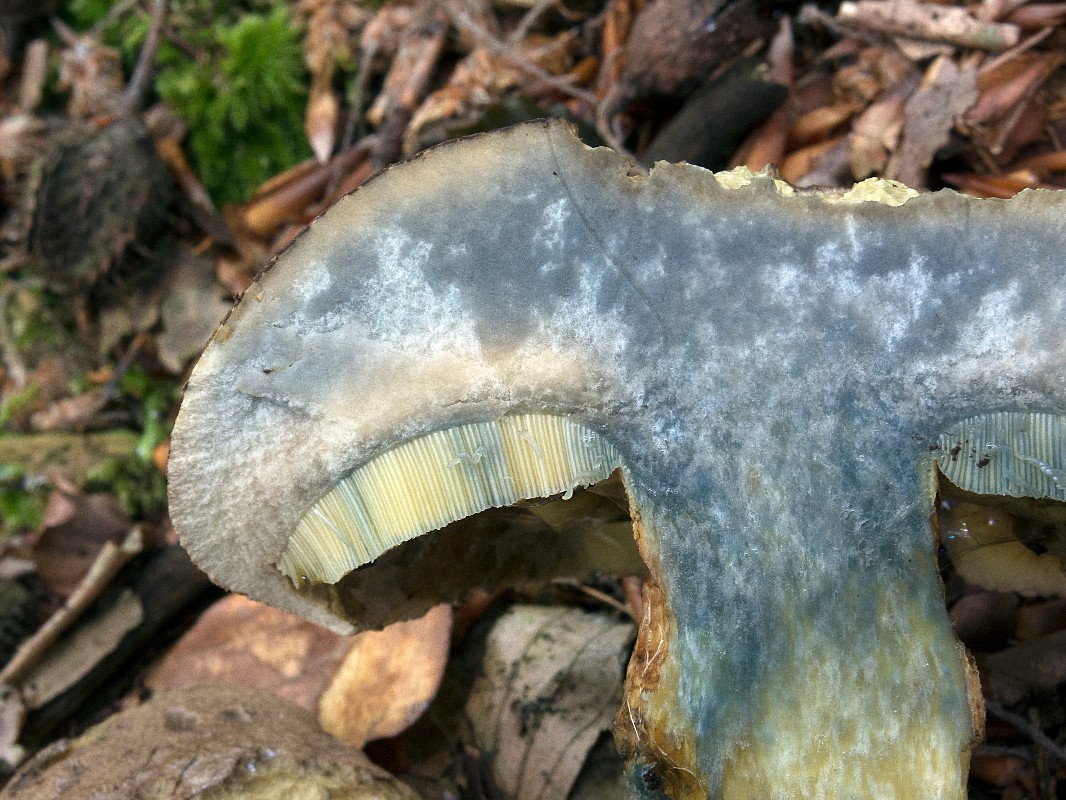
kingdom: Fungi
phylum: Basidiomycota
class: Agaricomycetes
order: Boletales
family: Boletaceae
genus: Caloboletus
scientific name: Caloboletus calopus
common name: skønfodet rørhat
